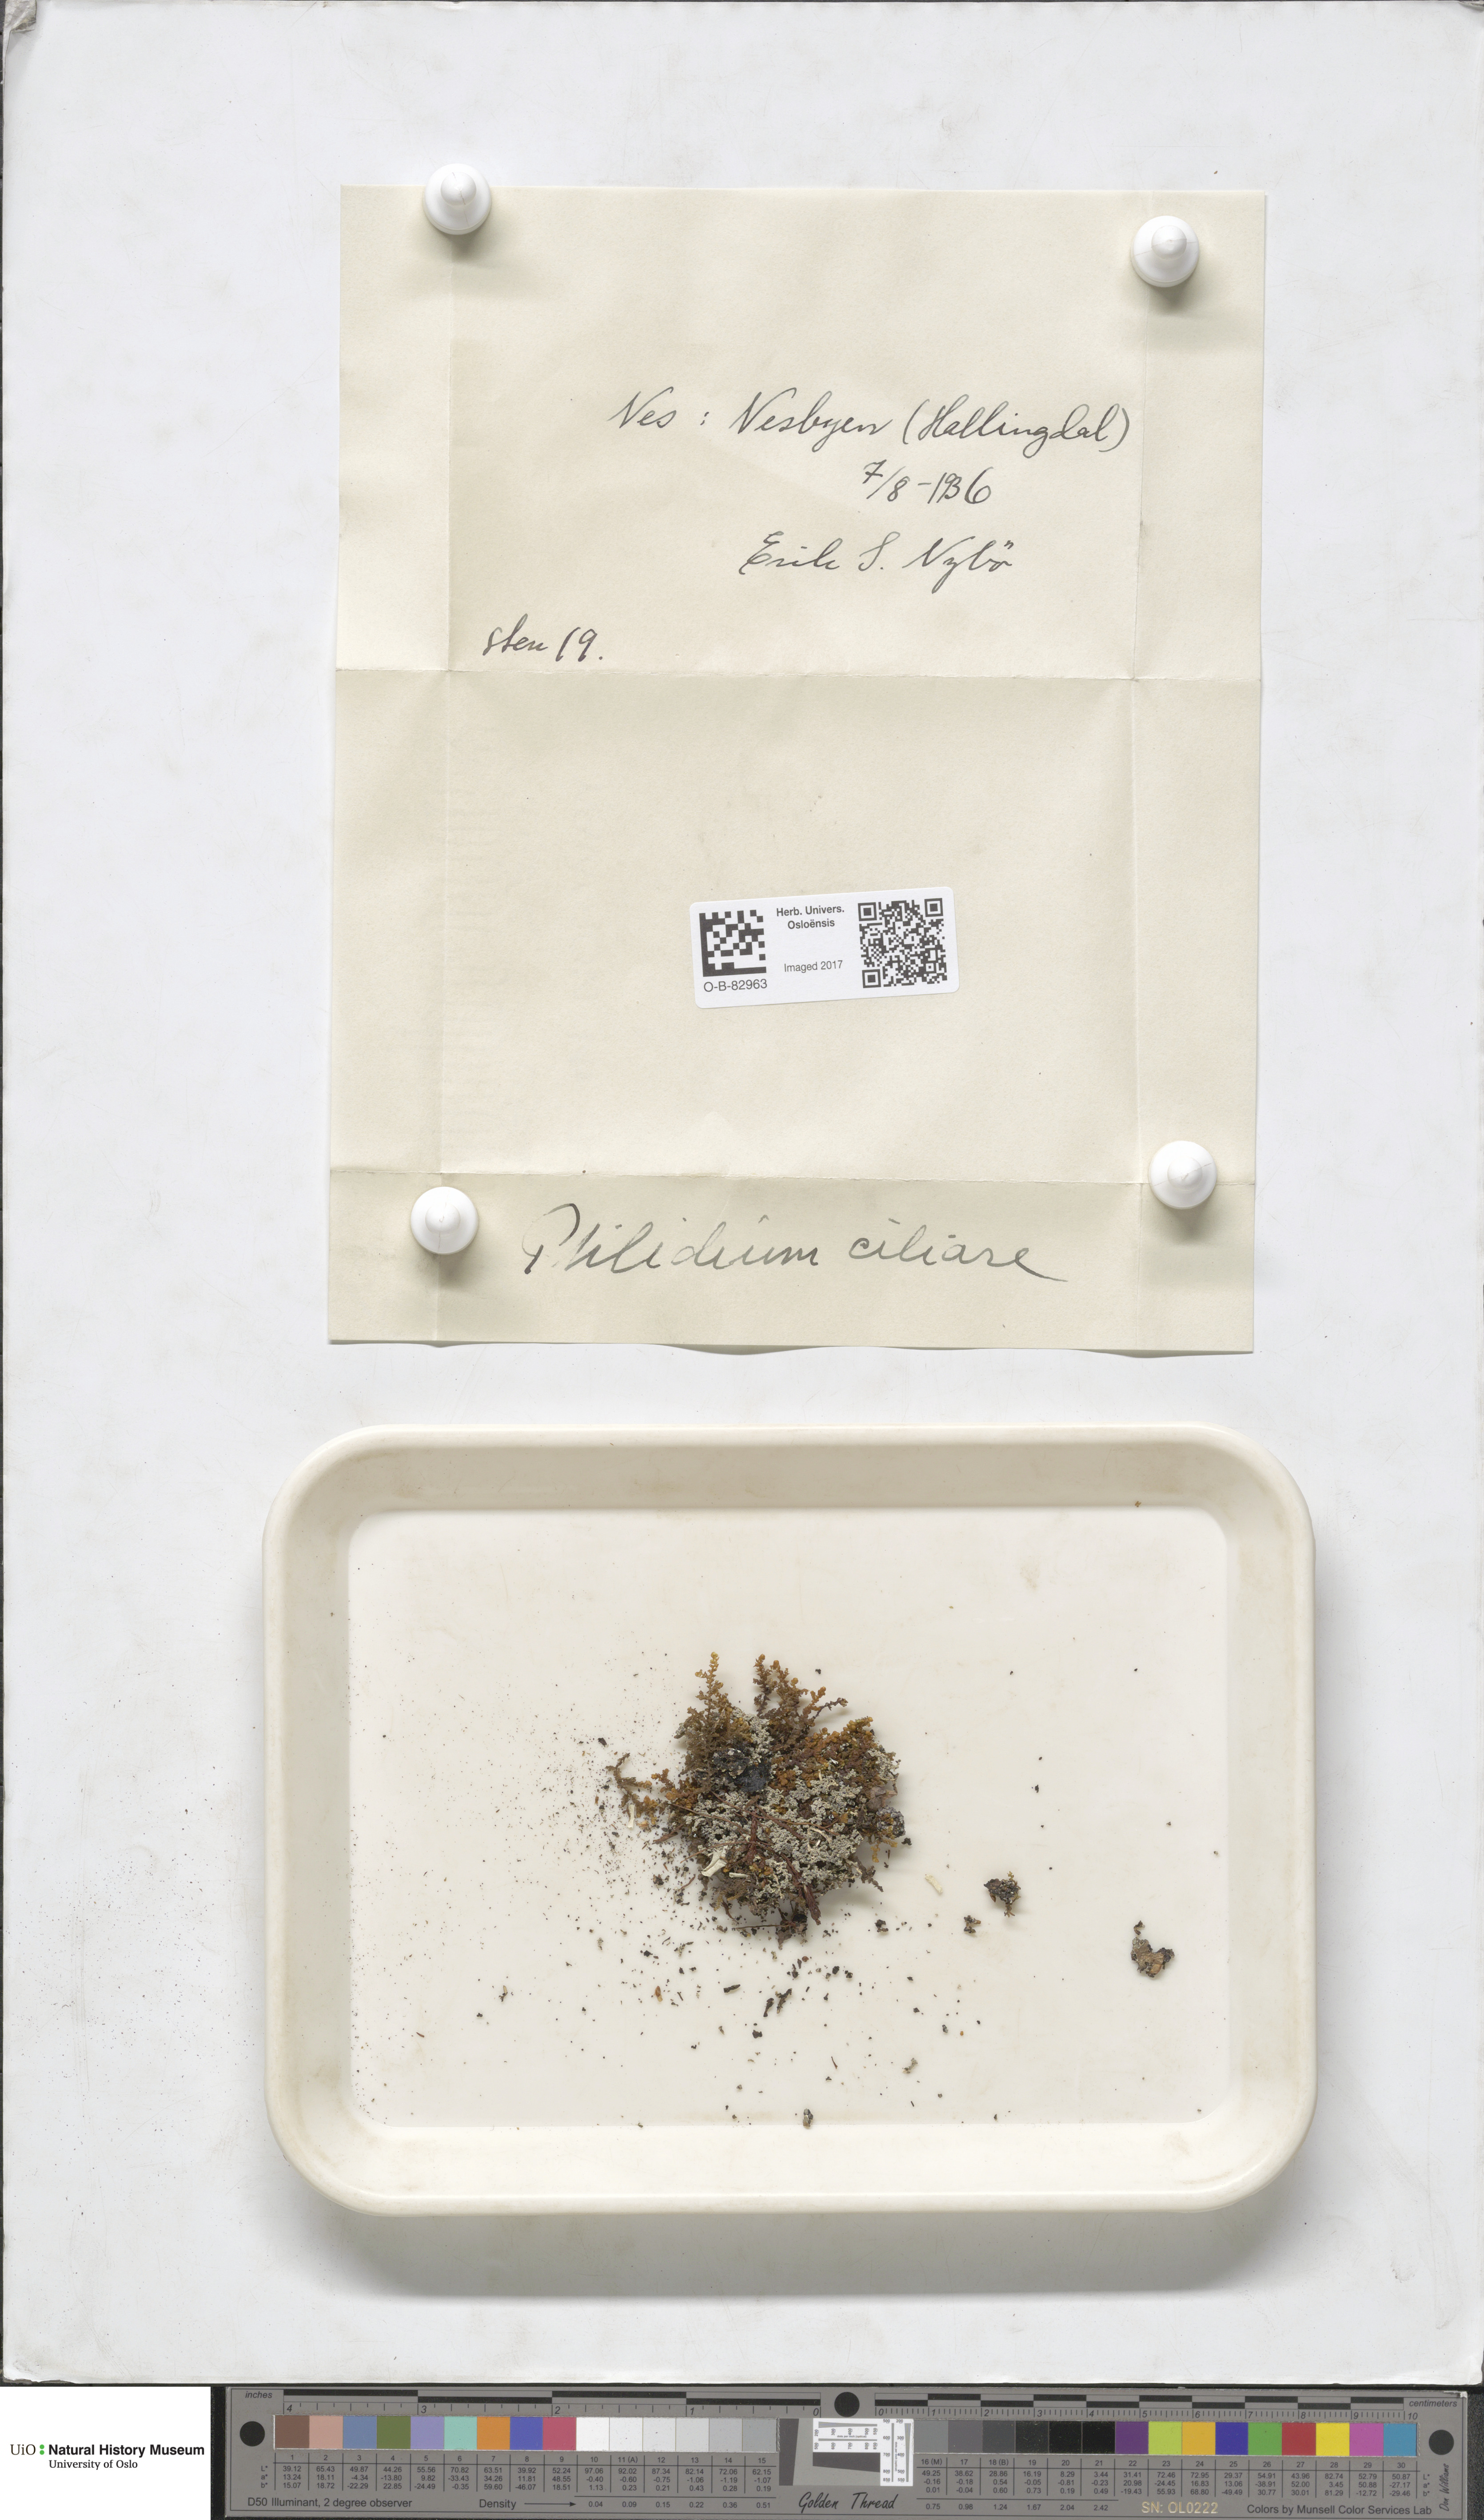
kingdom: Plantae
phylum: Marchantiophyta
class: Jungermanniopsida
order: Ptilidiales
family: Ptilidiaceae
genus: Ptilidium
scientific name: Ptilidium ciliare
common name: Ciliate fringewort
